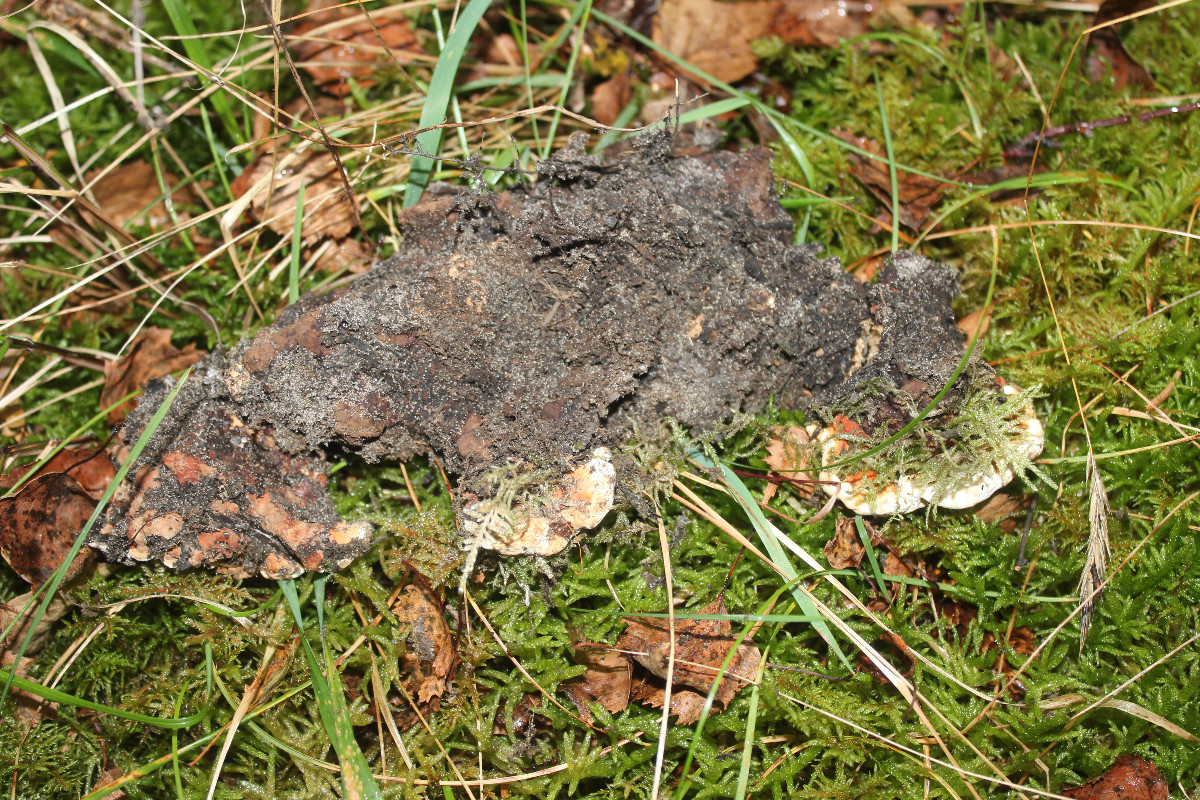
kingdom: Fungi
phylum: Basidiomycota
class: Agaricomycetes
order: Russulales
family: Bondarzewiaceae
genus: Heterobasidion
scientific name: Heterobasidion annosum
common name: almindelig rodfordærver
